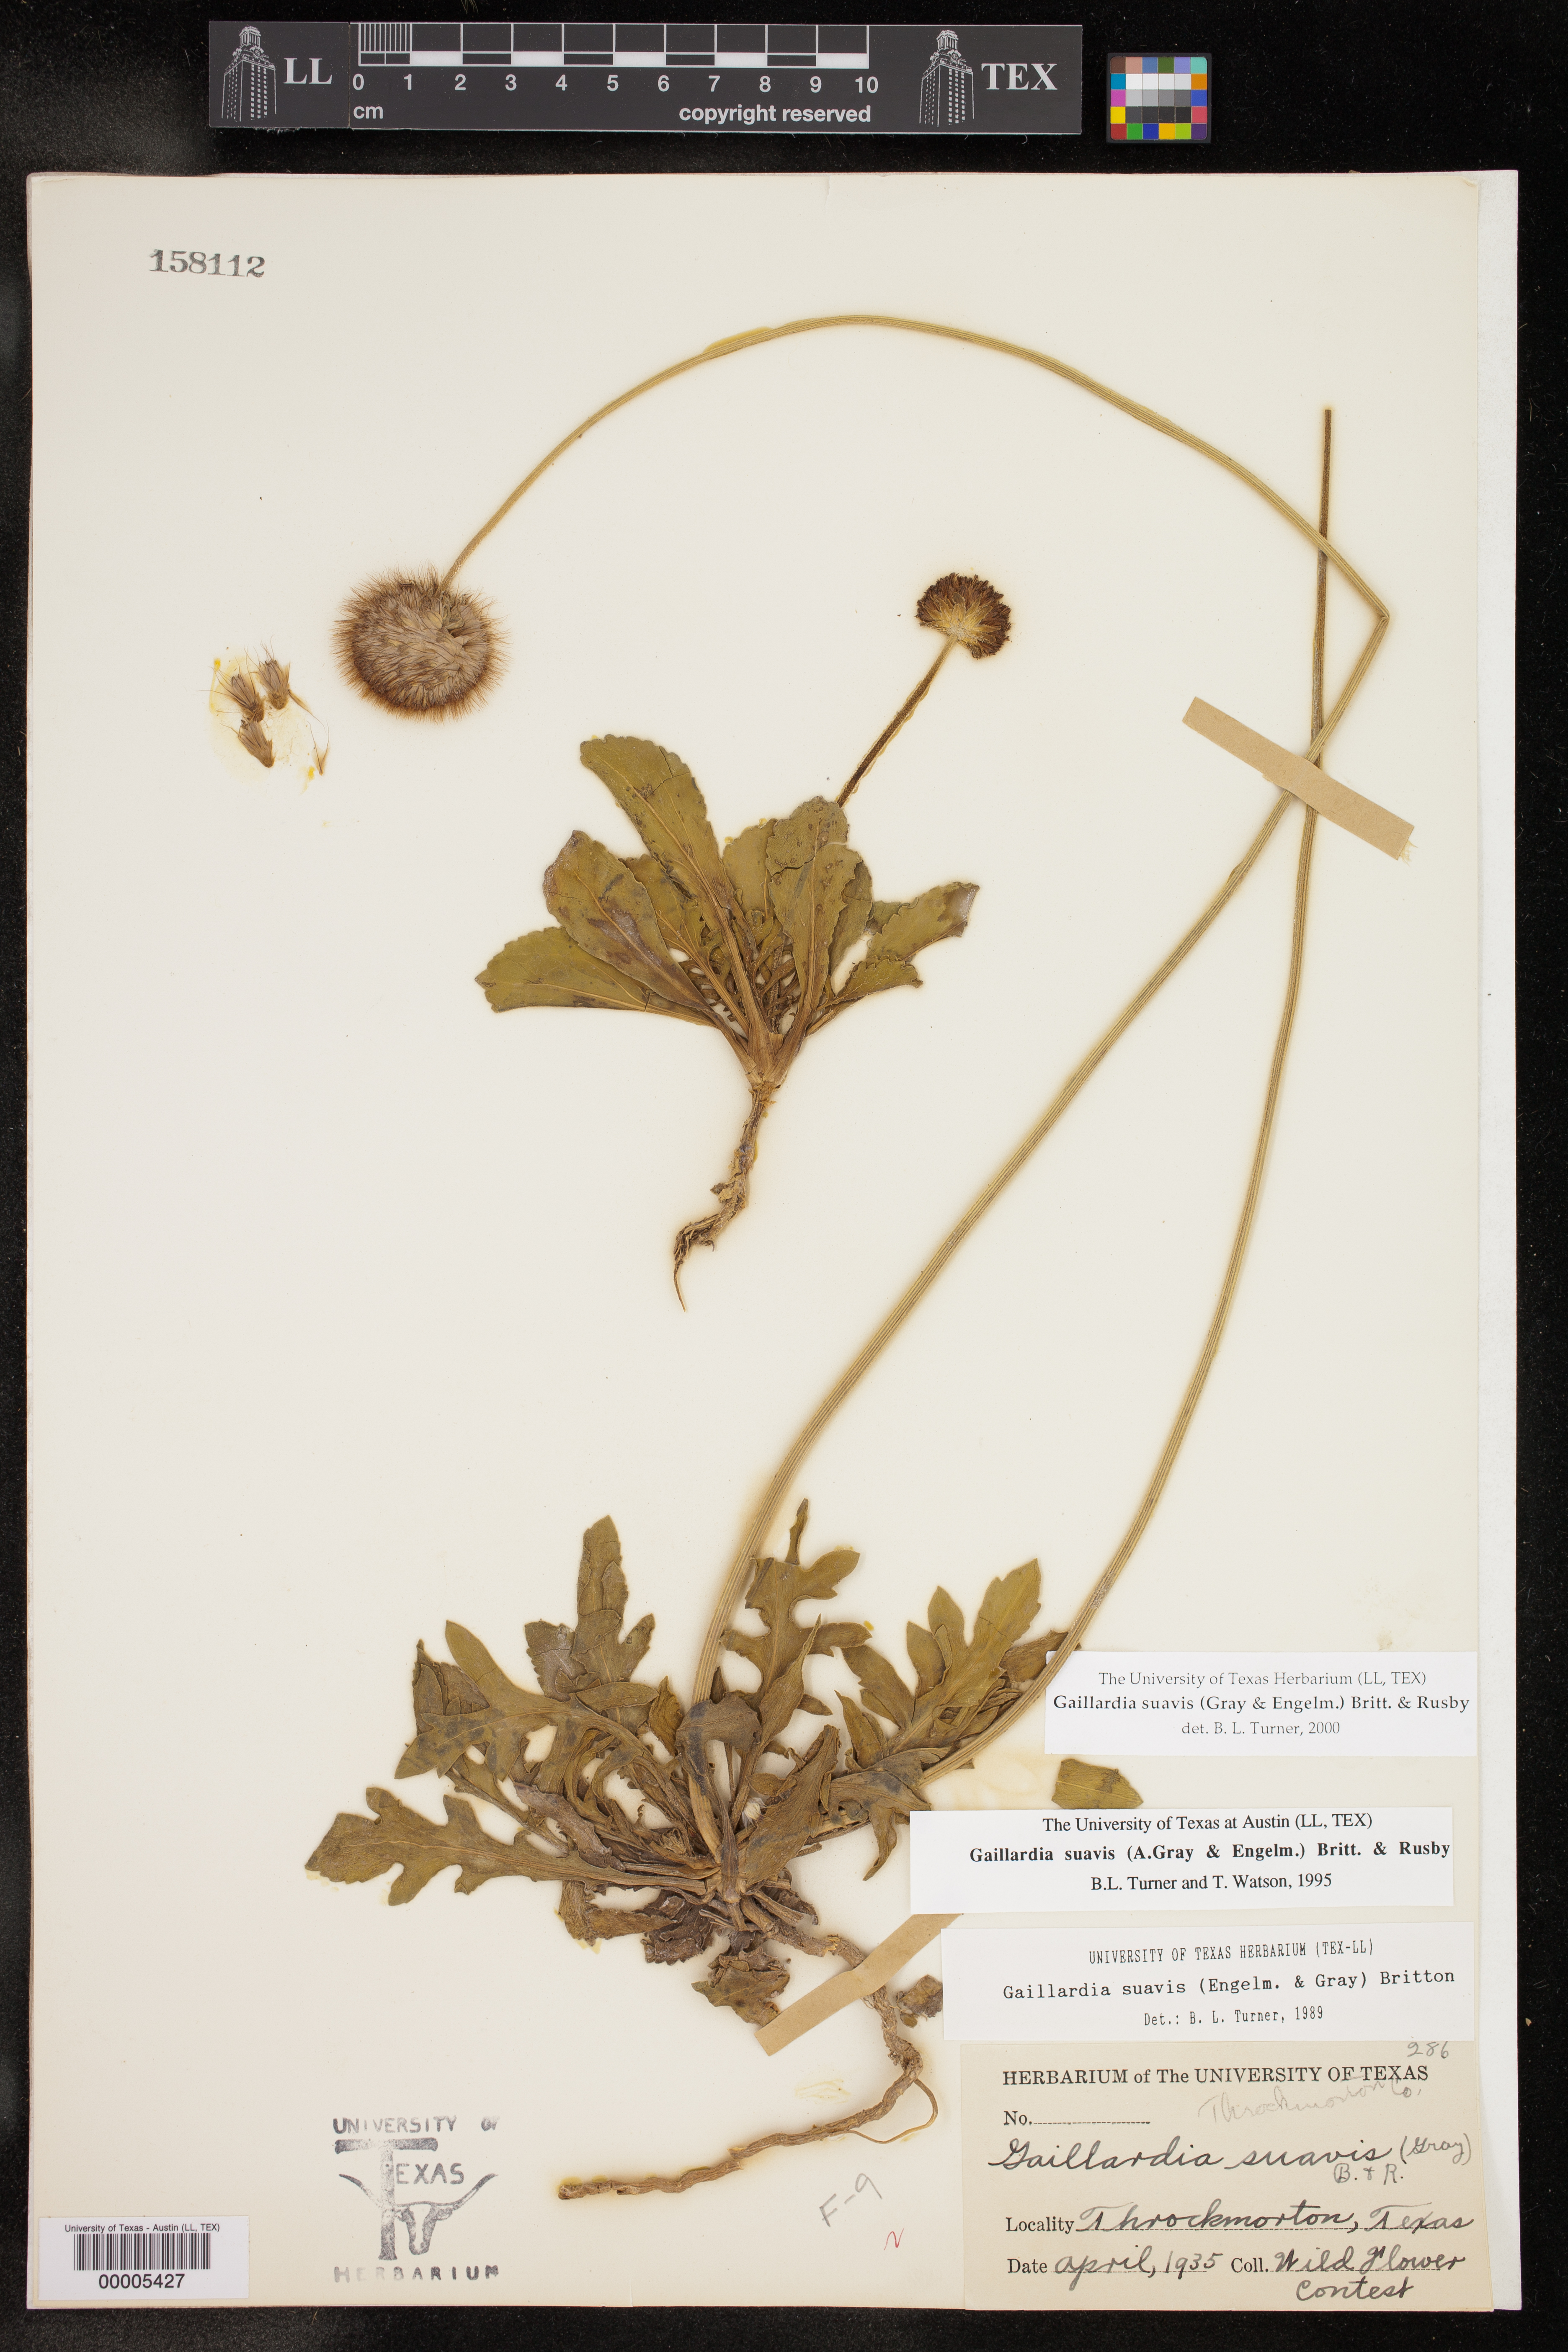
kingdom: Plantae
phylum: Tracheophyta
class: Magnoliopsida
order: Asterales
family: Asteraceae
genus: Gaillardia
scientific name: Gaillardia suavis
